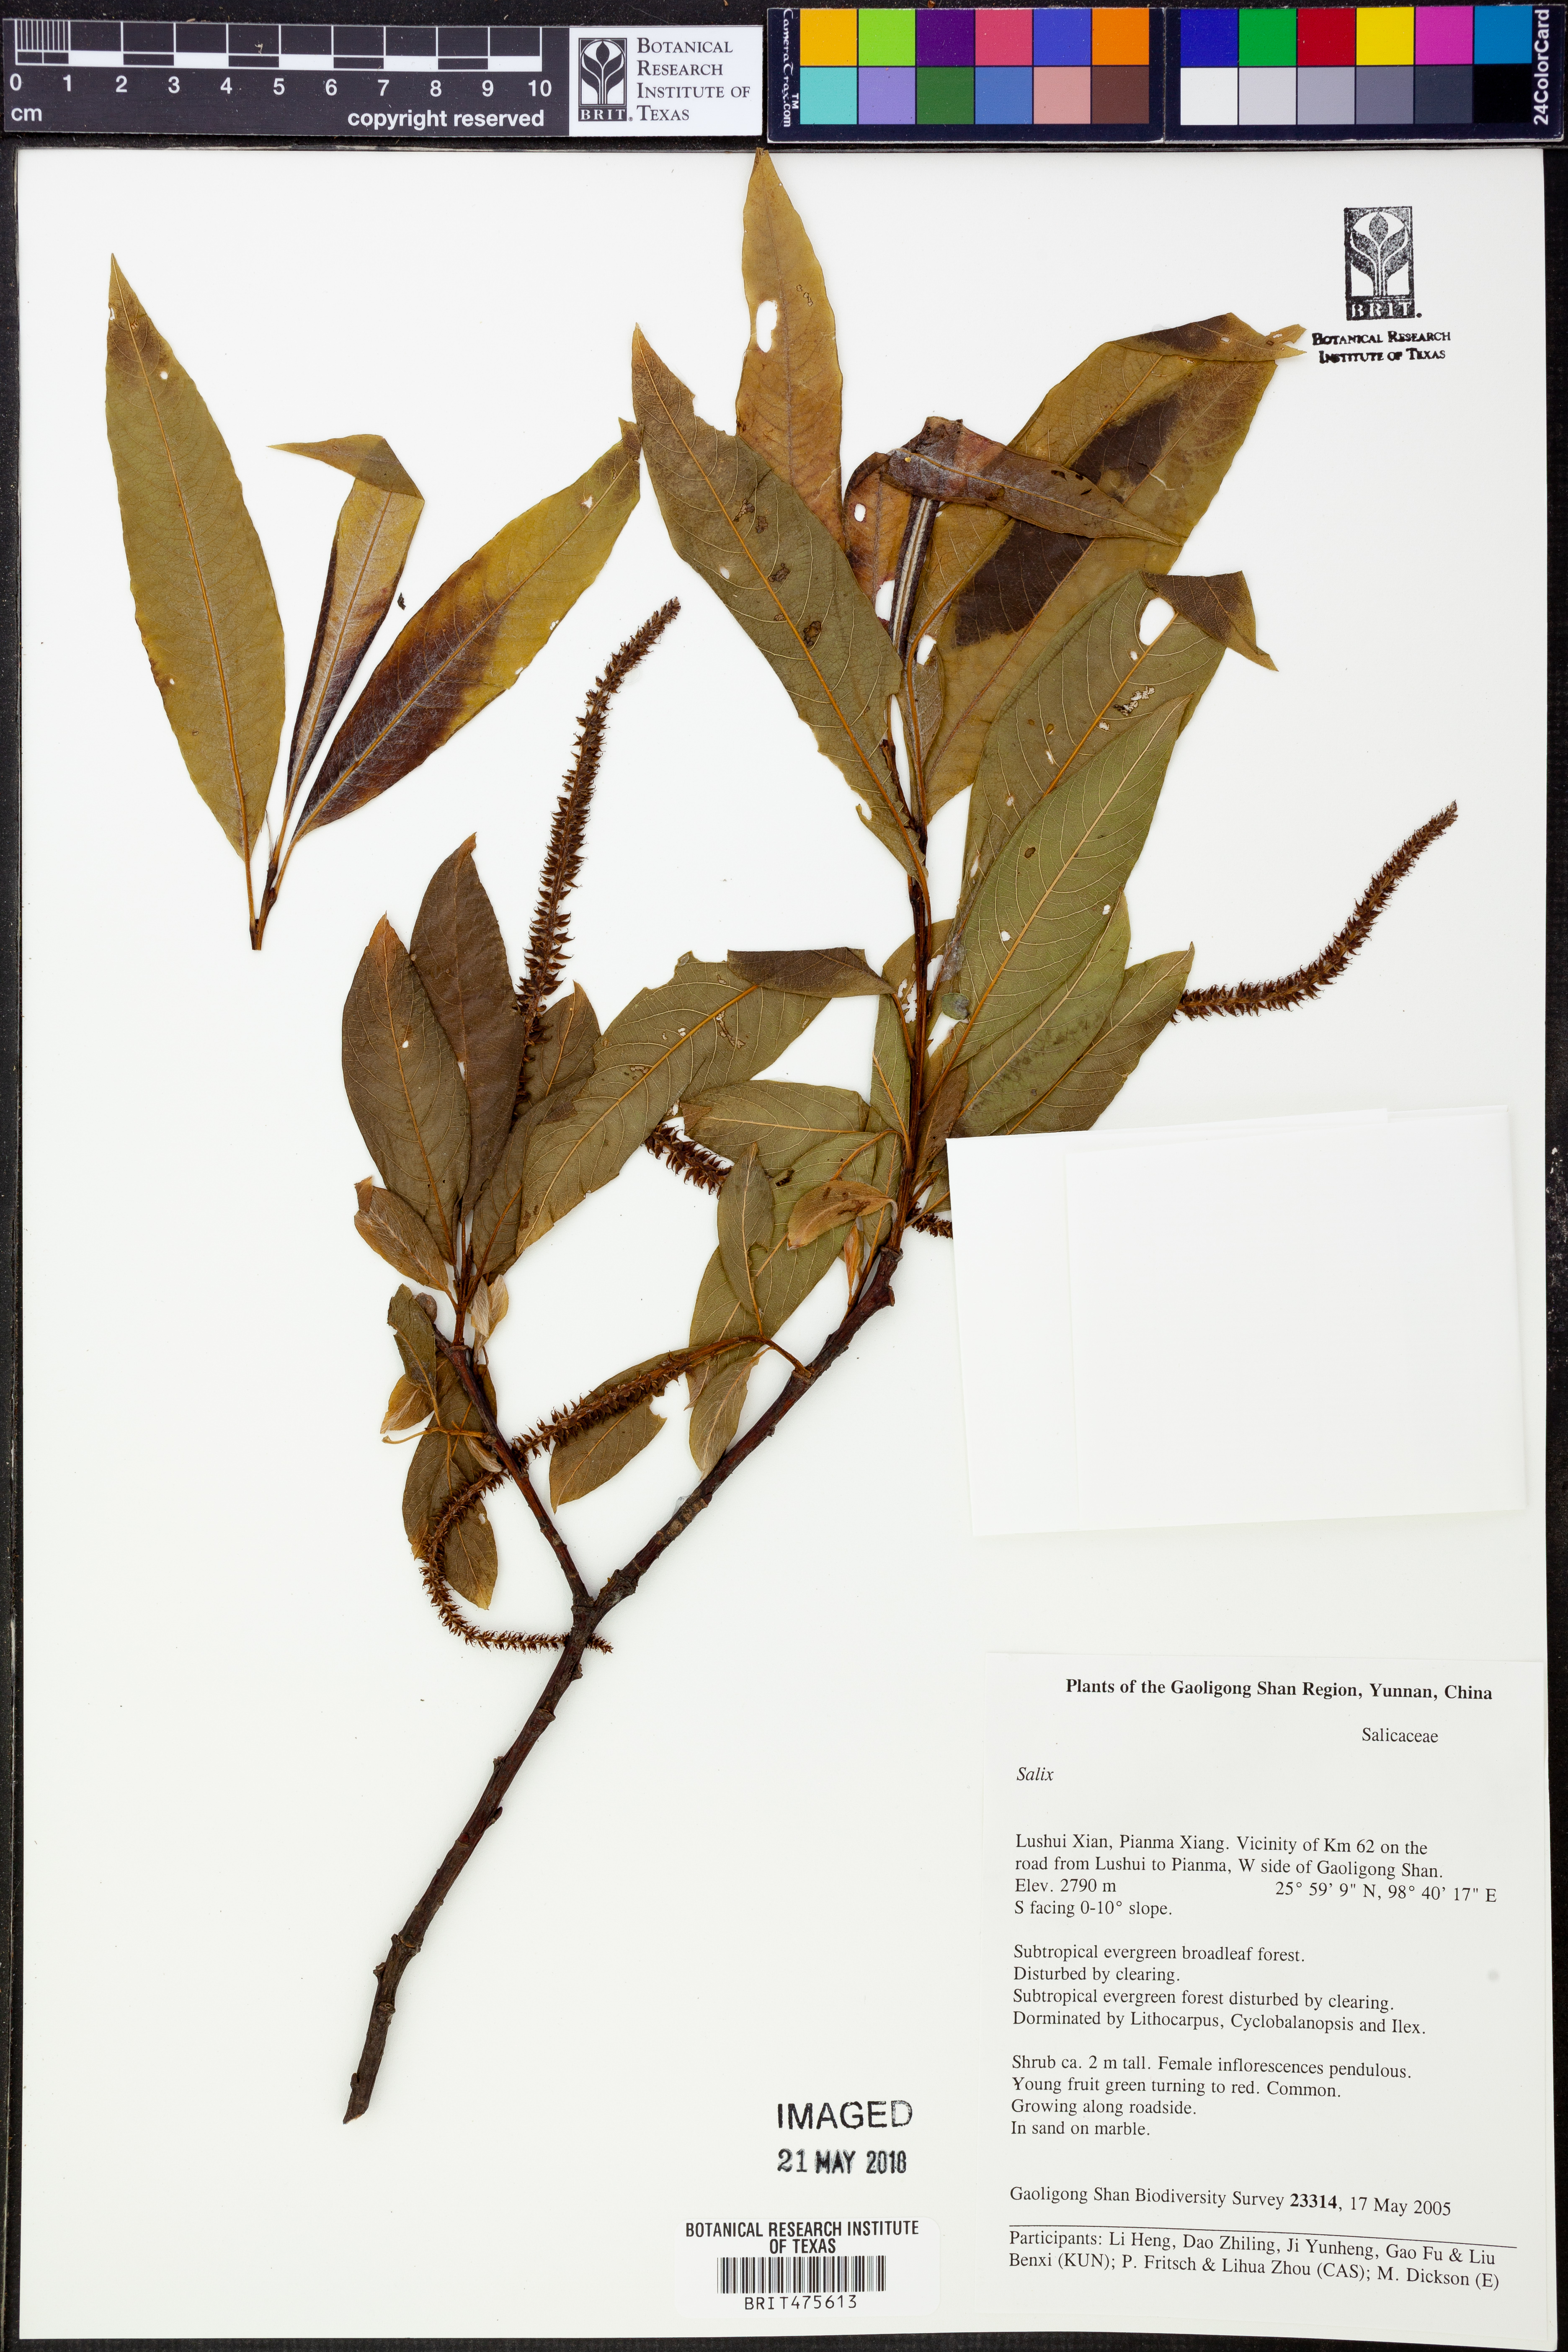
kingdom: Plantae
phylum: Tracheophyta
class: Magnoliopsida
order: Malpighiales
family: Salicaceae
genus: Salix
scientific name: Salix
